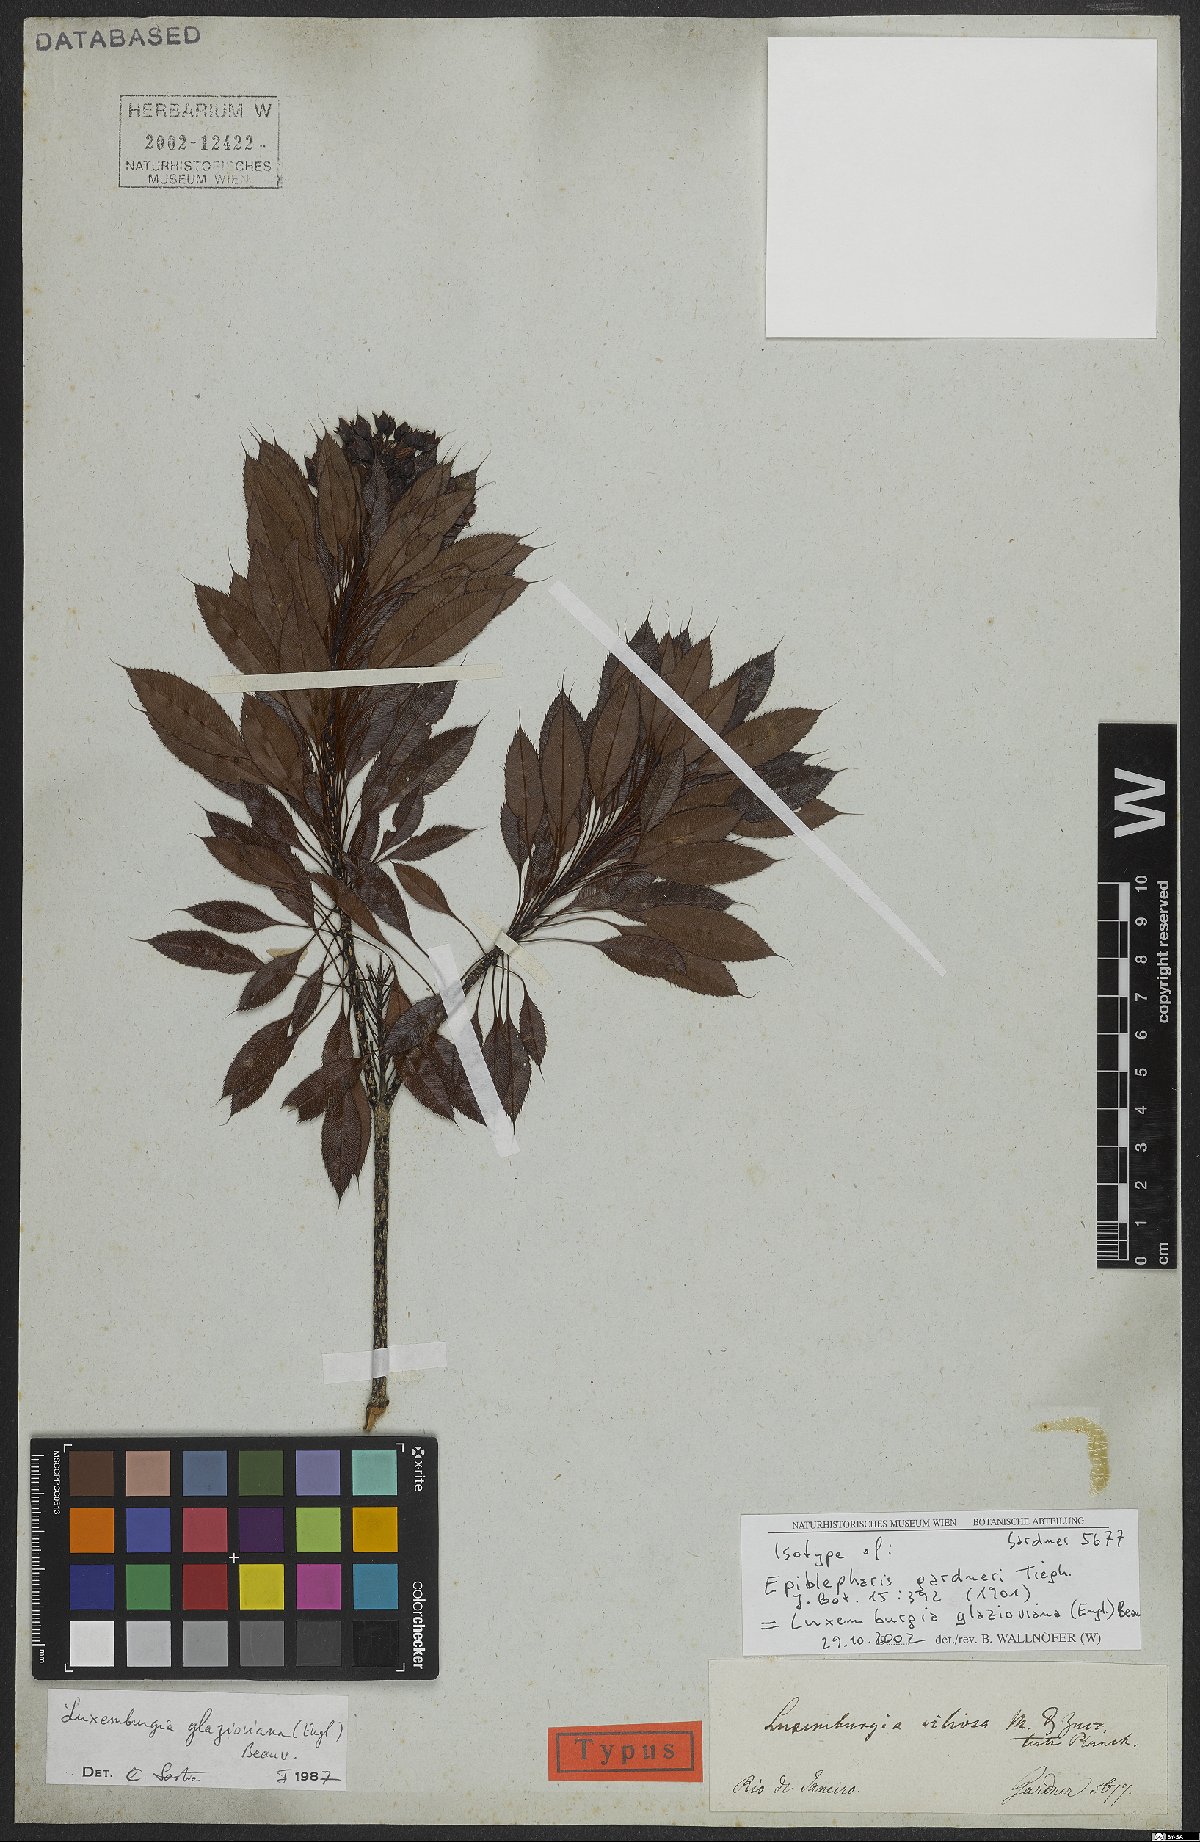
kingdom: Plantae
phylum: Tracheophyta
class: Magnoliopsida
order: Malpighiales
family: Ochnaceae
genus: Luxemburgia
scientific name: Luxemburgia glazioviana
